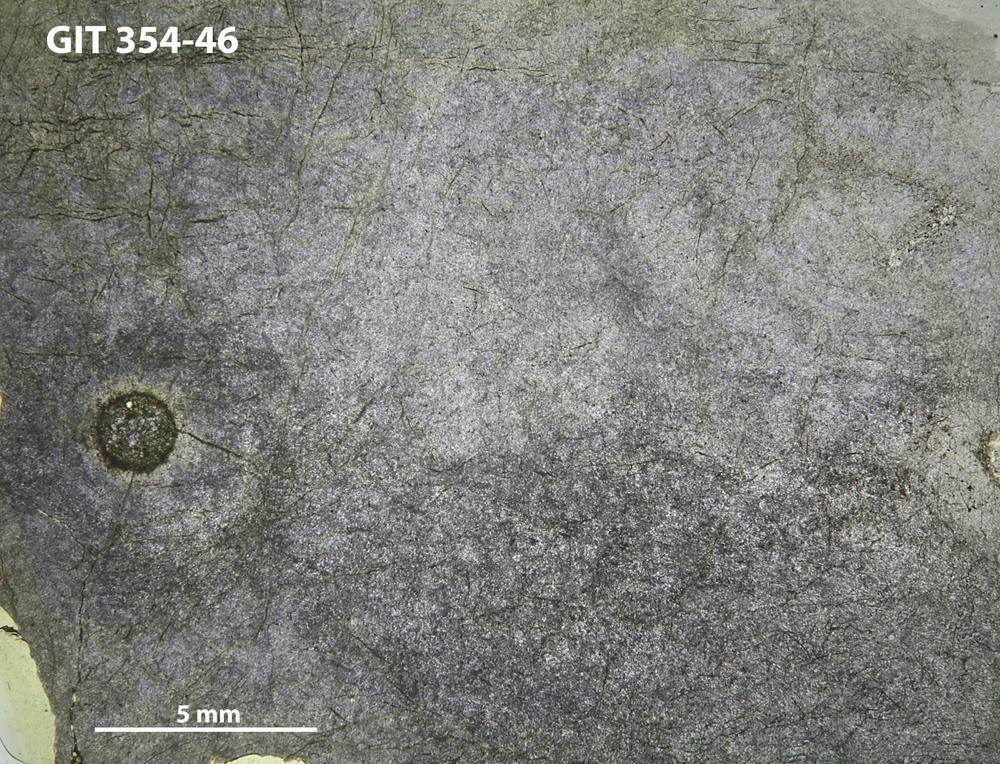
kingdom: Animalia
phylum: Porifera
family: Pseudolabechiidae
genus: Plumatalinia
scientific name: Plumatalinia ferax
